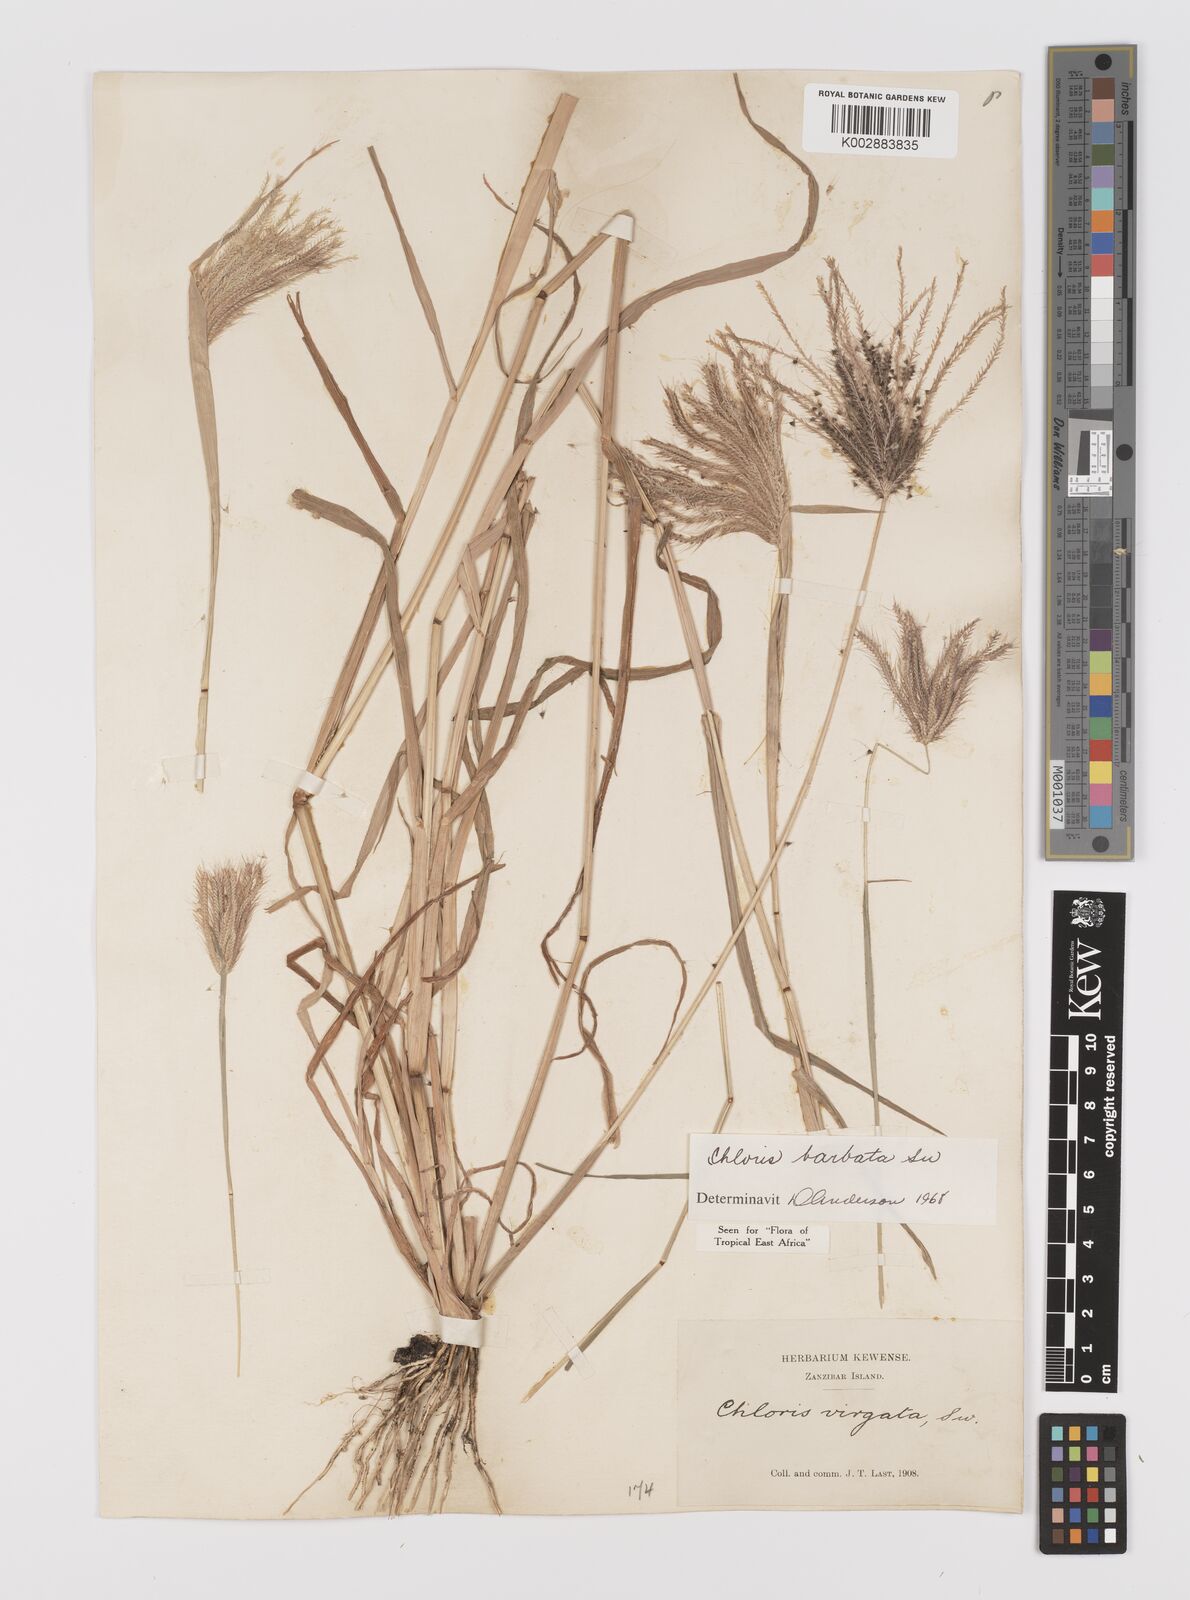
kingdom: Plantae
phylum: Tracheophyta
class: Liliopsida
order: Poales
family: Poaceae
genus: Chloris
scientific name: Chloris barbata
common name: Swollen fingergrass
